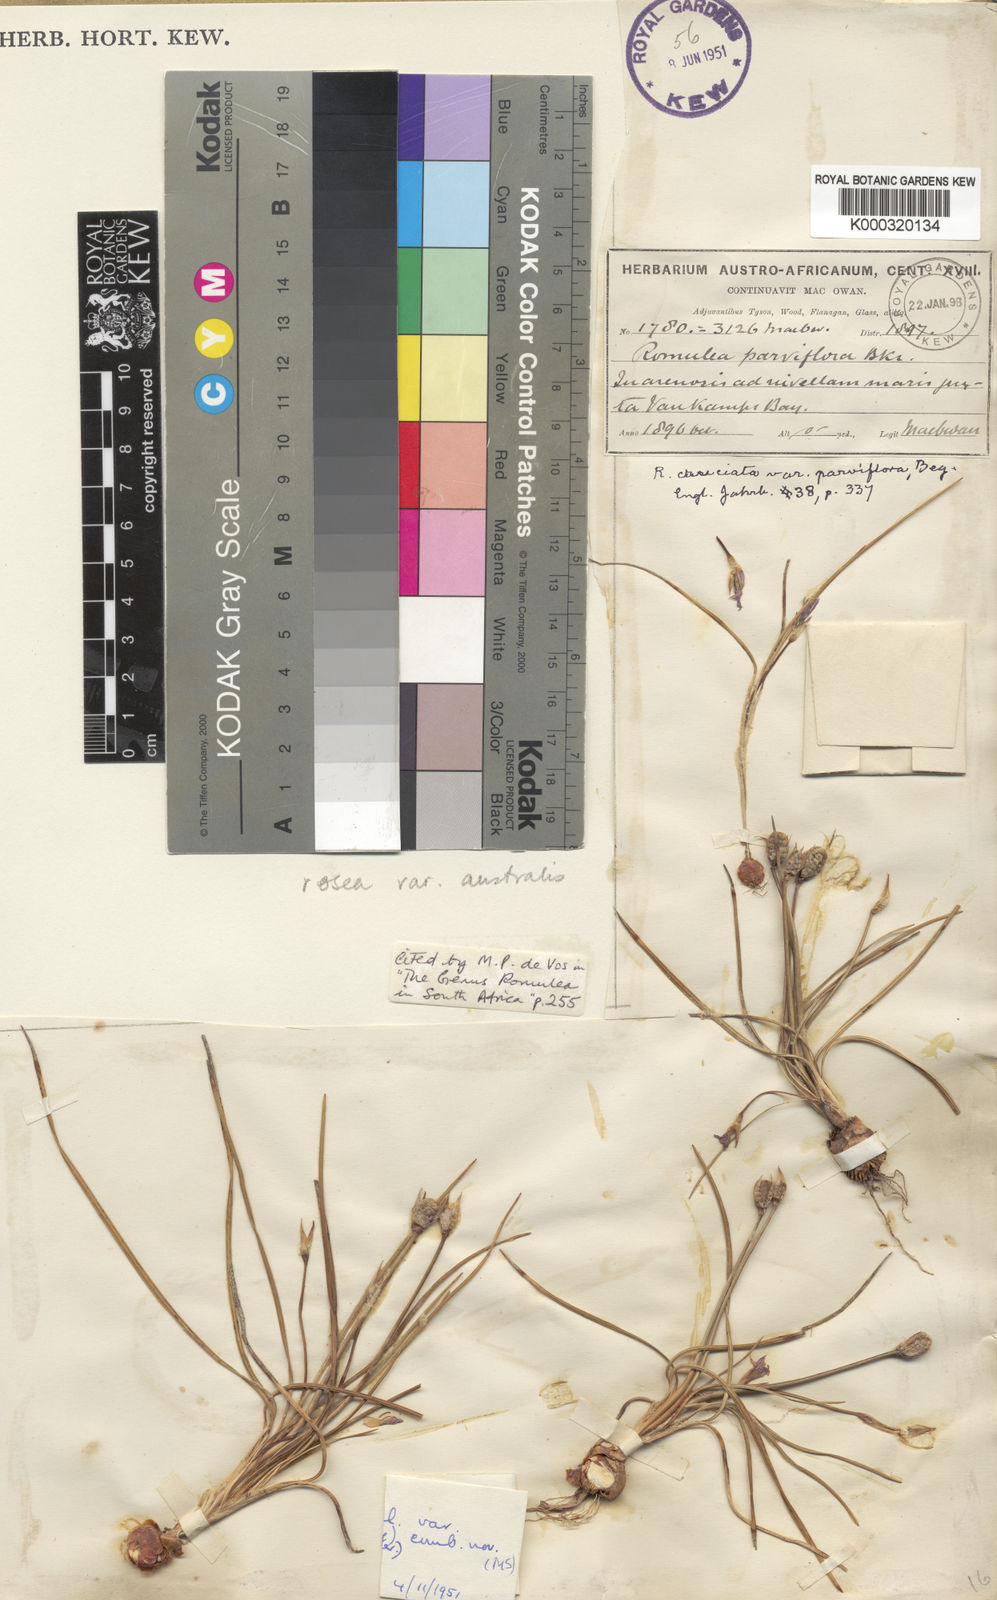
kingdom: Plantae
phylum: Tracheophyta
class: Liliopsida
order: Asparagales
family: Iridaceae
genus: Romulea
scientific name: Romulea rosea
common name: Oniongrass
